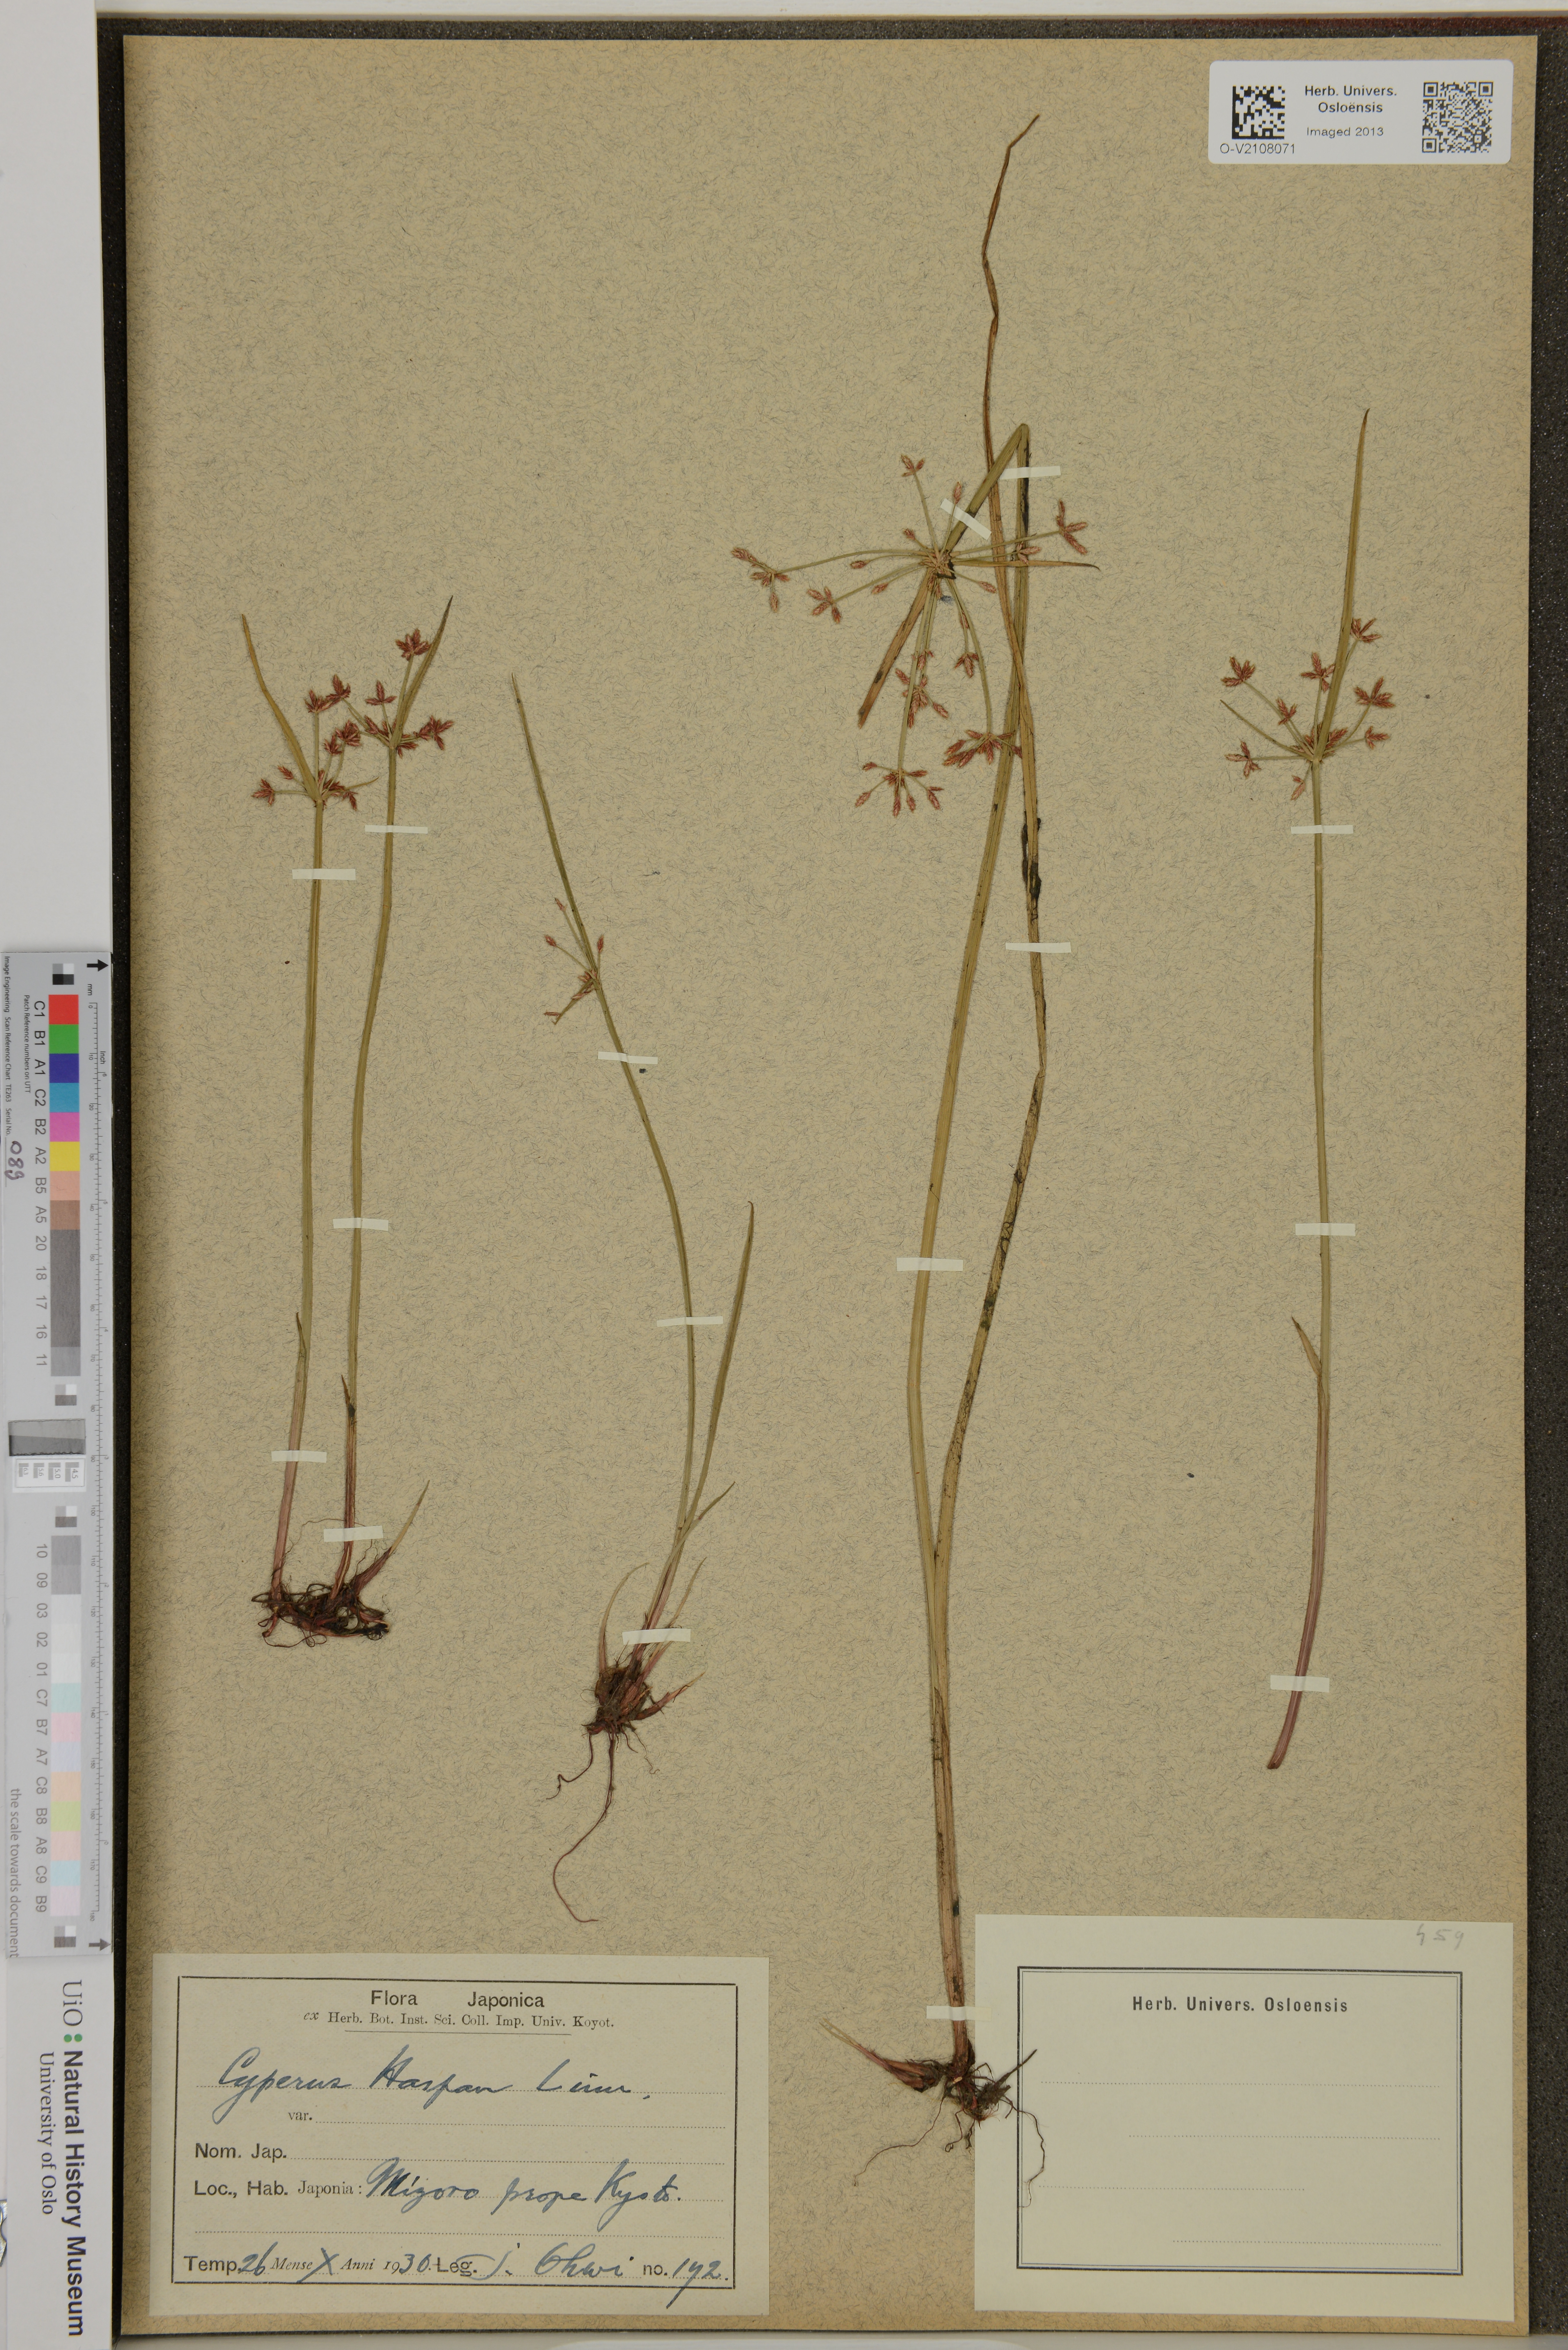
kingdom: Plantae
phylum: Tracheophyta
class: Liliopsida
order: Poales
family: Cyperaceae
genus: Cyperus
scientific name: Cyperus haspan
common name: Haspan flatsedge
